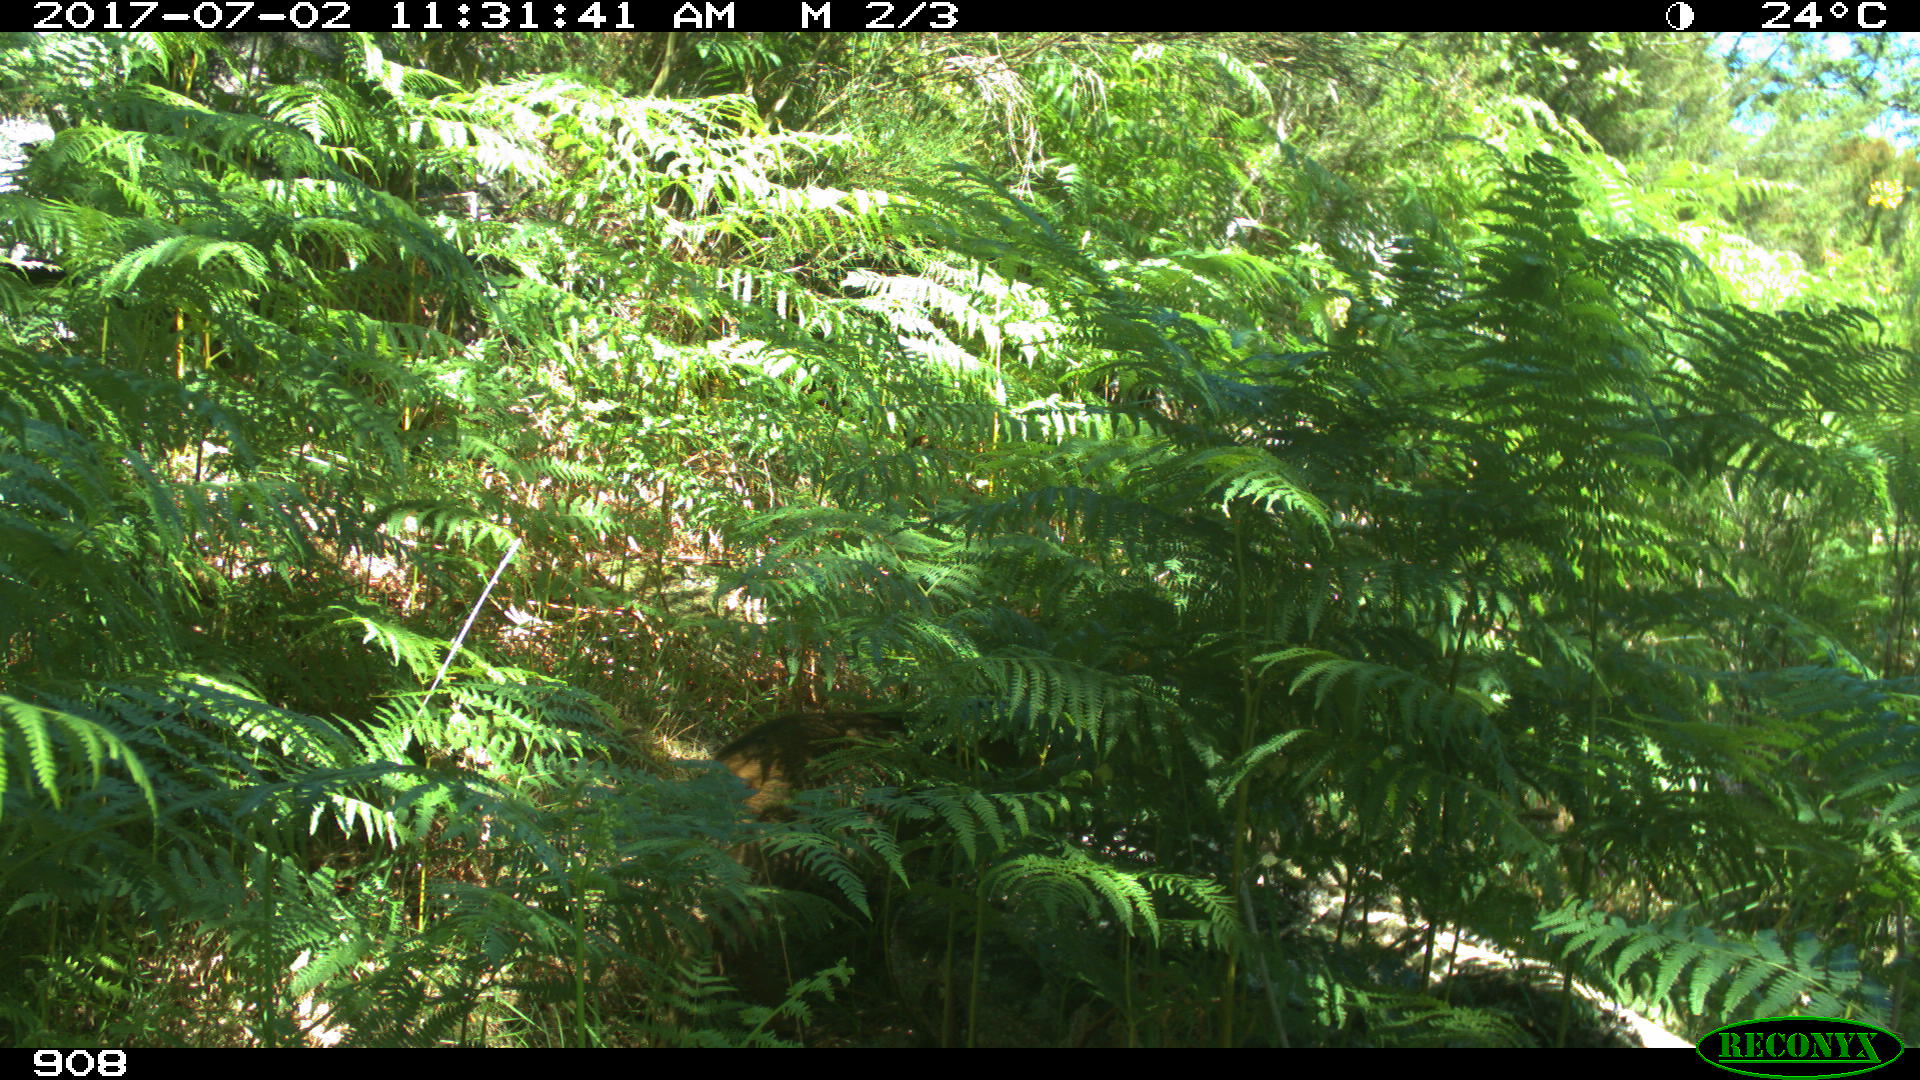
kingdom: Animalia
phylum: Chordata
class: Mammalia
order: Artiodactyla
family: Cervidae
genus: Capreolus
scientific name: Capreolus capreolus
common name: Western roe deer
